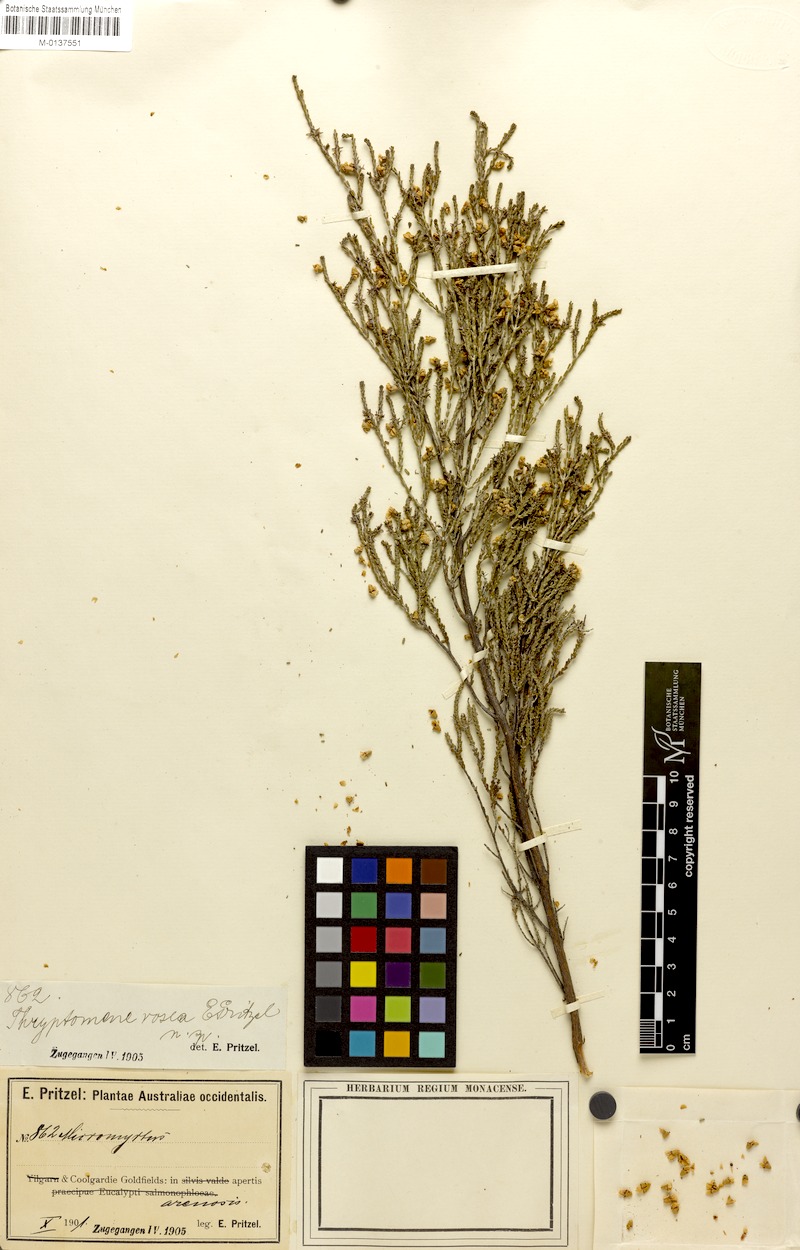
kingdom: Plantae
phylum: Tracheophyta
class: Magnoliopsida
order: Myrtales
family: Myrtaceae
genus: Malleostemon
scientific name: Malleostemon roseus
